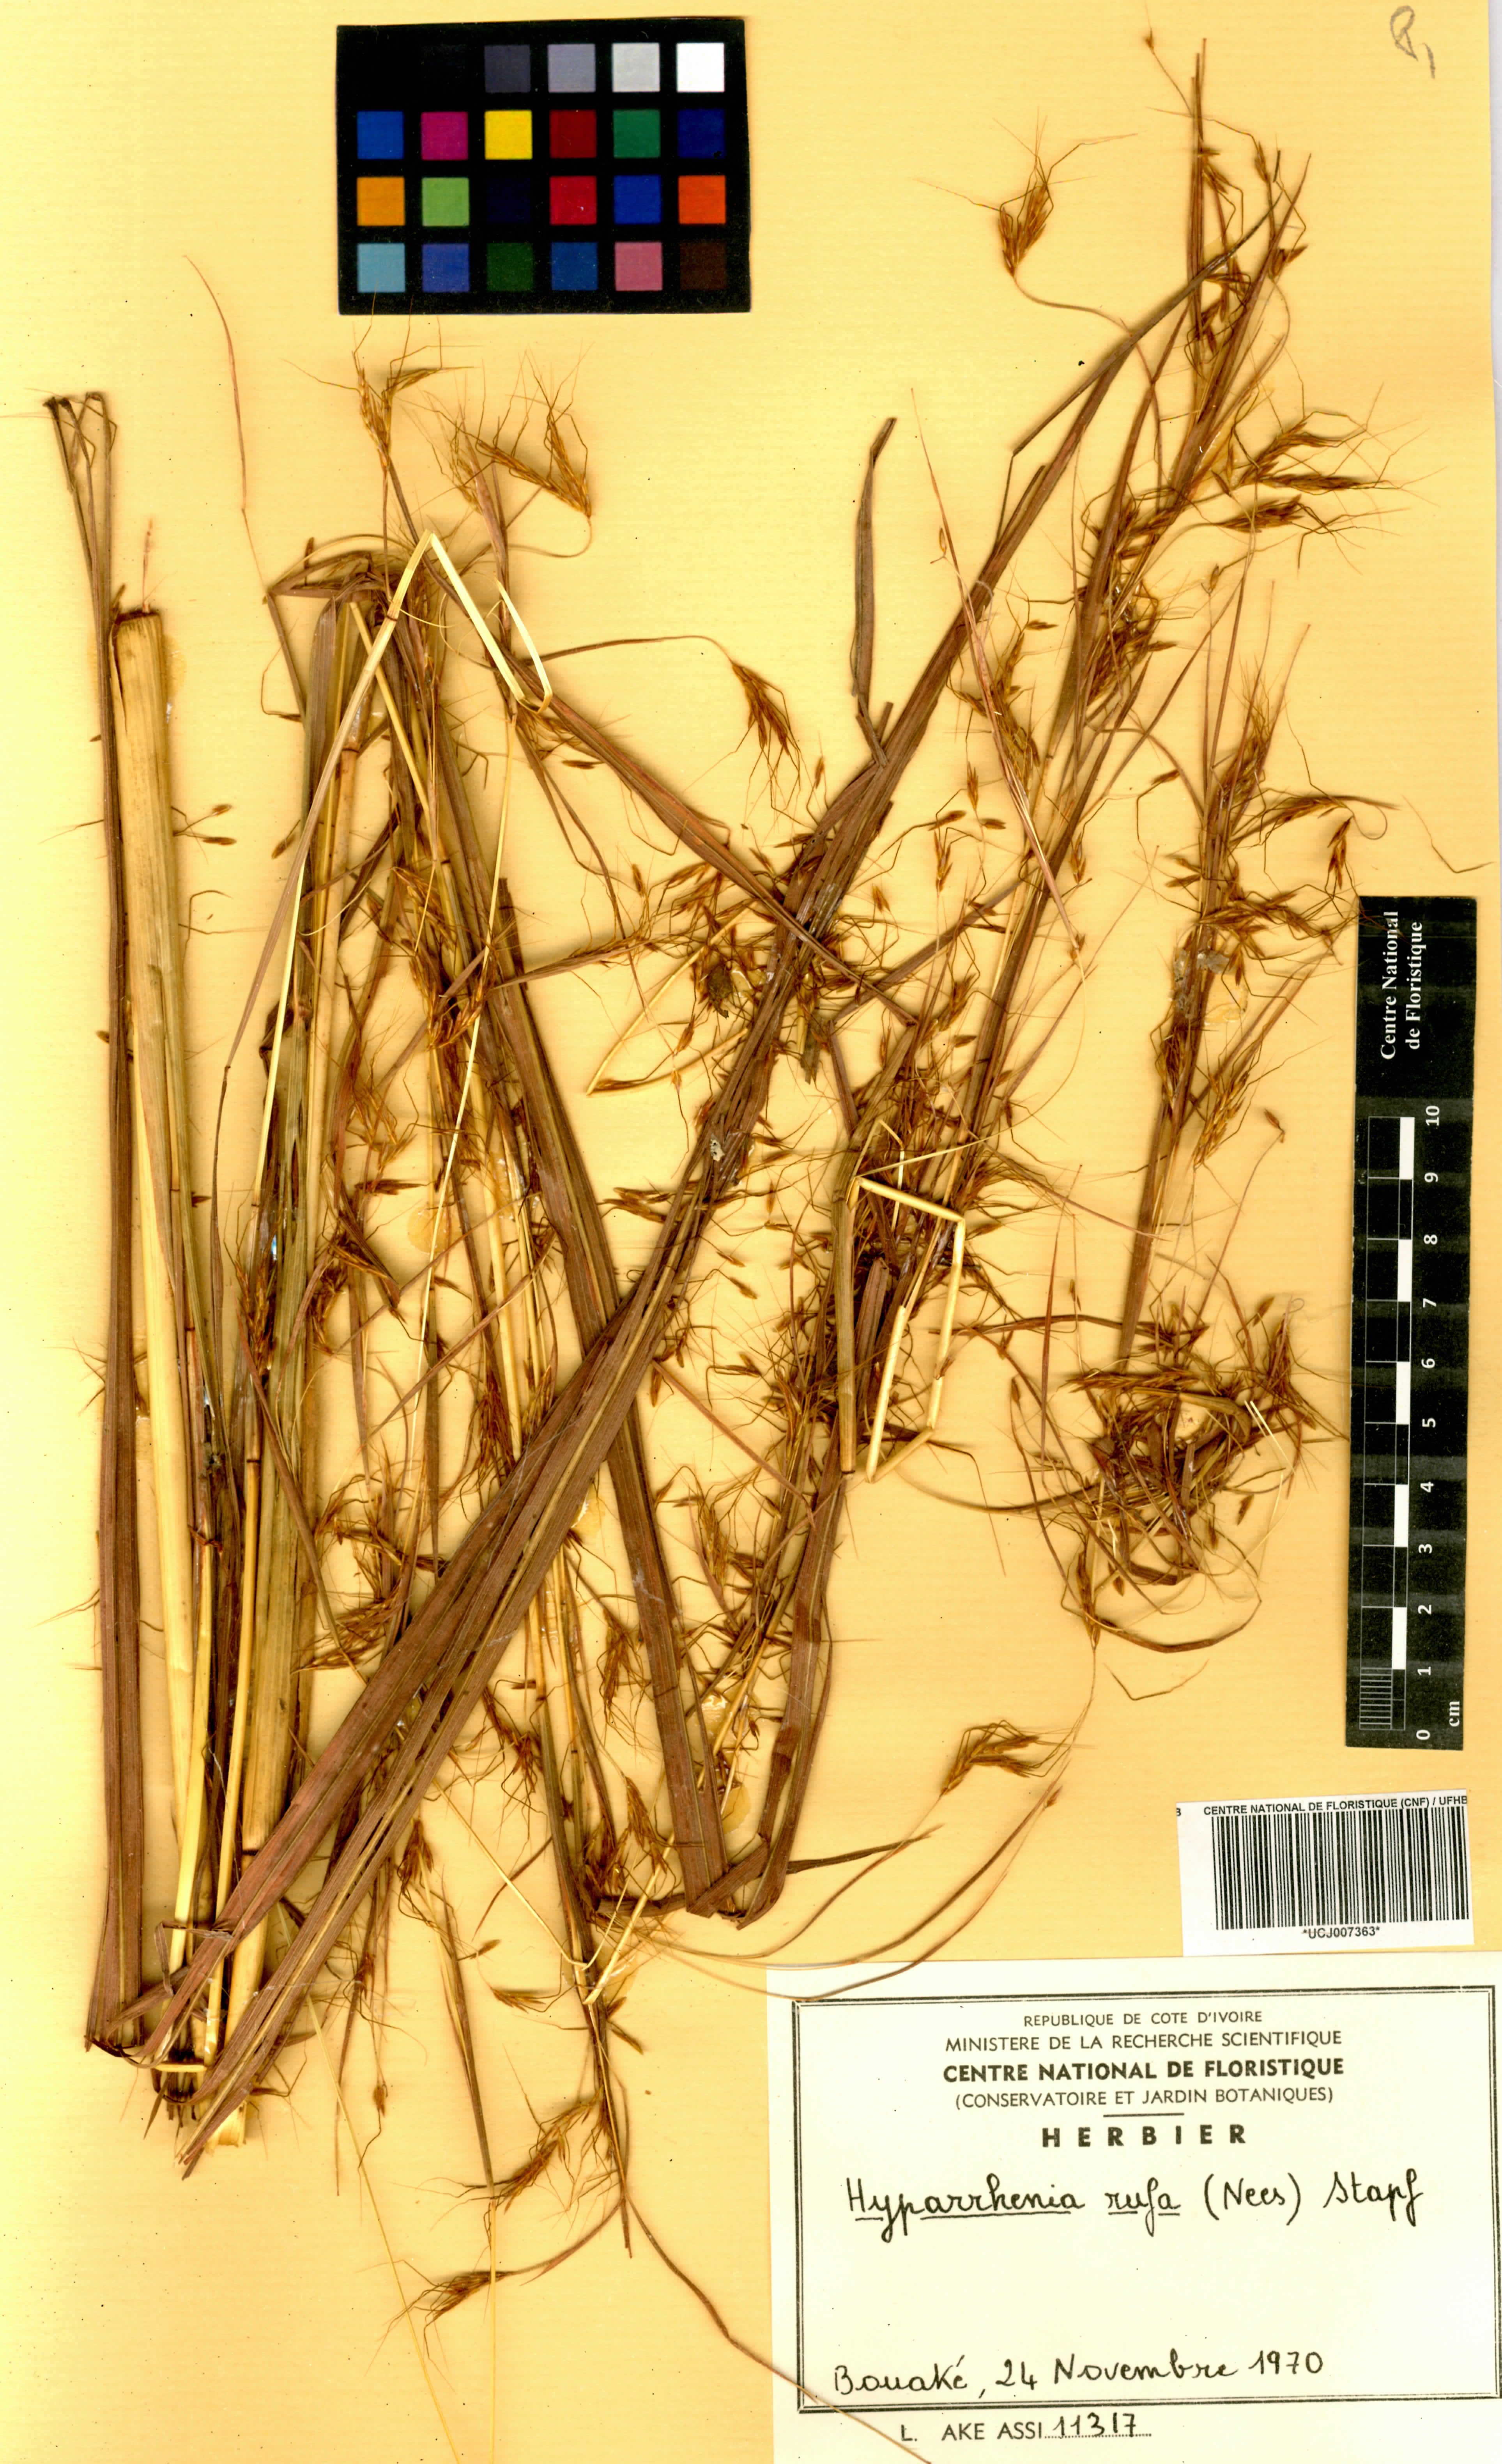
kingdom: Plantae
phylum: Tracheophyta
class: Liliopsida
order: Poales
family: Poaceae
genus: Hyparrhenia
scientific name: Hyparrhenia rufa
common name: Jaraguagrass
